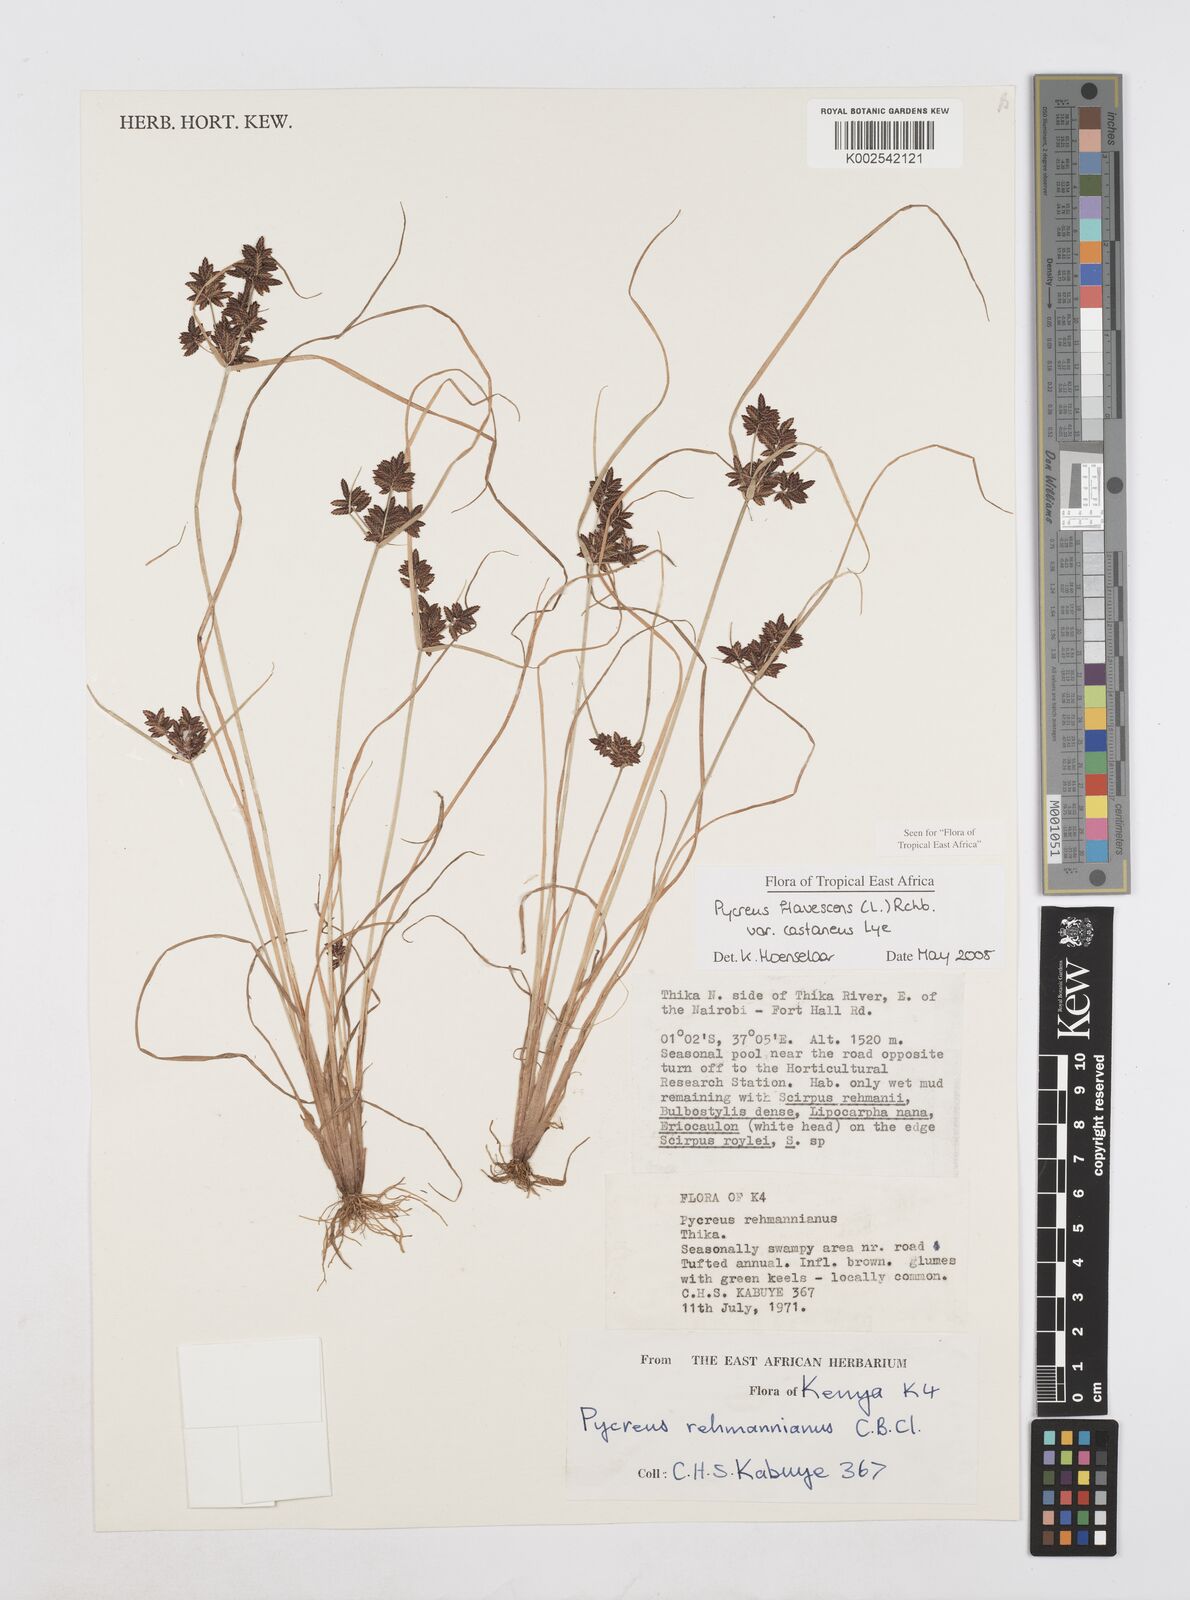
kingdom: Plantae
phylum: Tracheophyta
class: Liliopsida
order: Poales
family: Cyperaceae
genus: Cyperus
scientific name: Cyperus flavescens
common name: Yellow galingale
